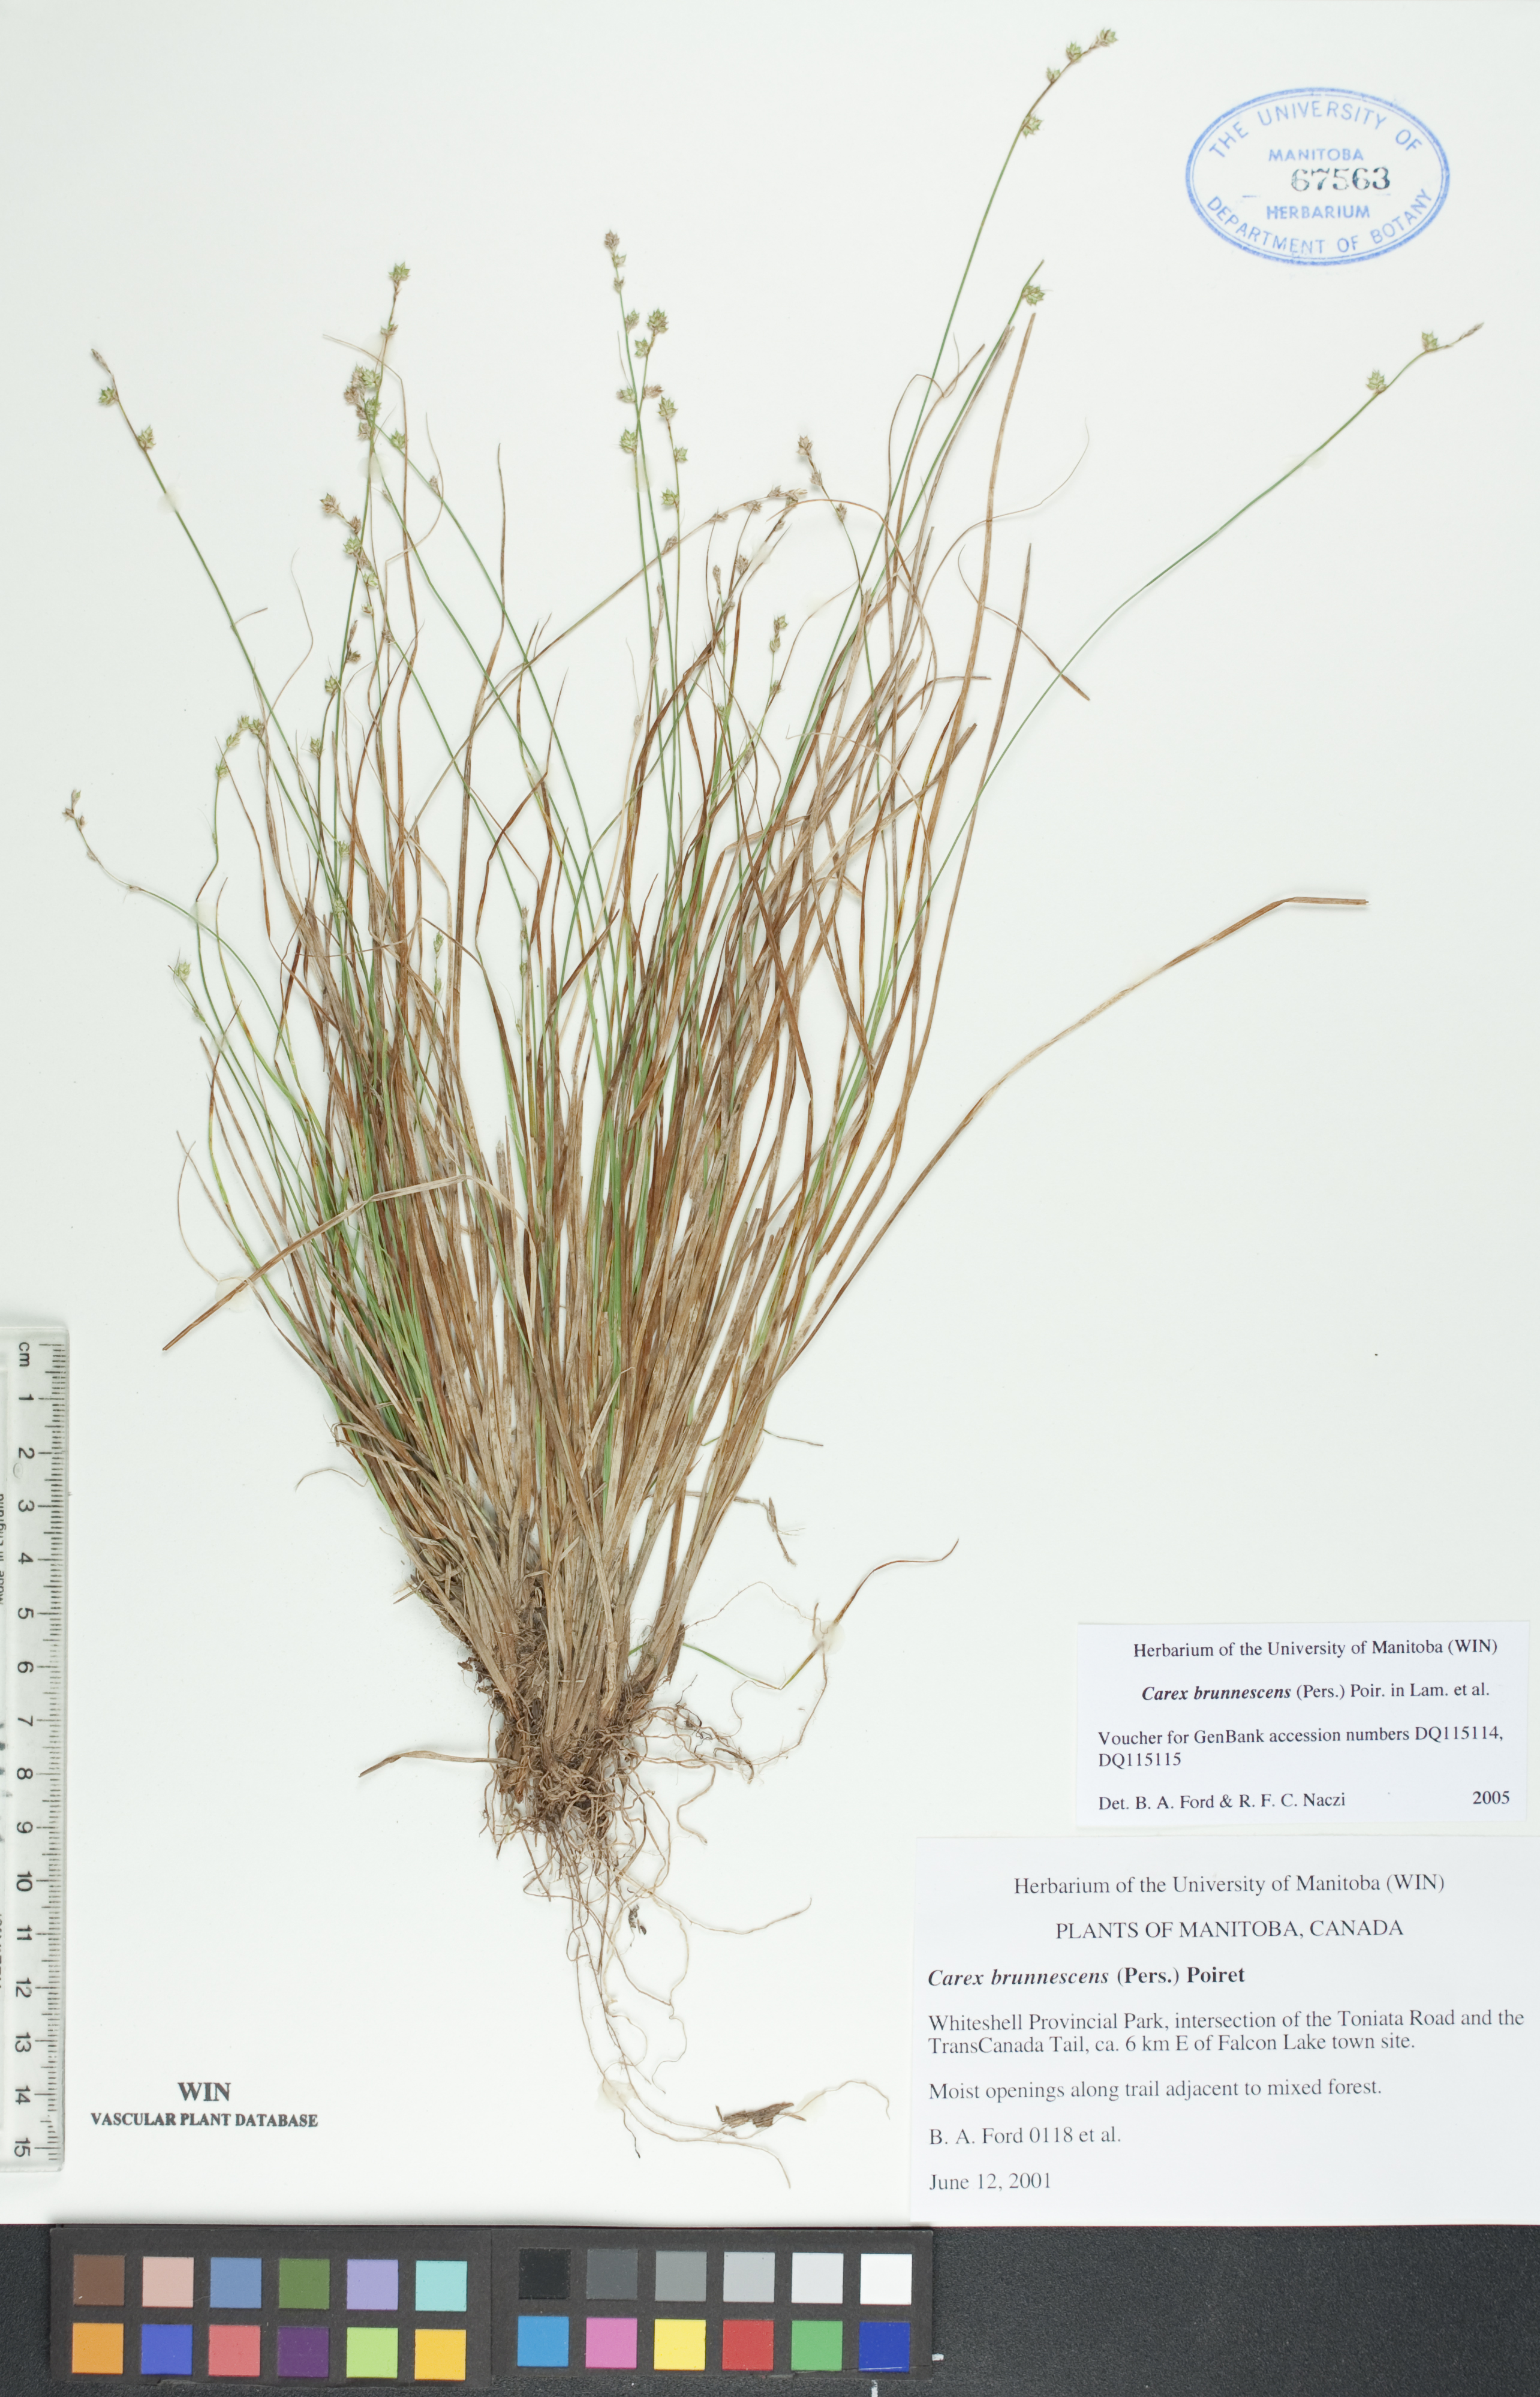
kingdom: Plantae
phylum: Tracheophyta
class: Liliopsida
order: Poales
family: Cyperaceae
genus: Carex
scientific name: Carex brunnescens
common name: Brown sedge
